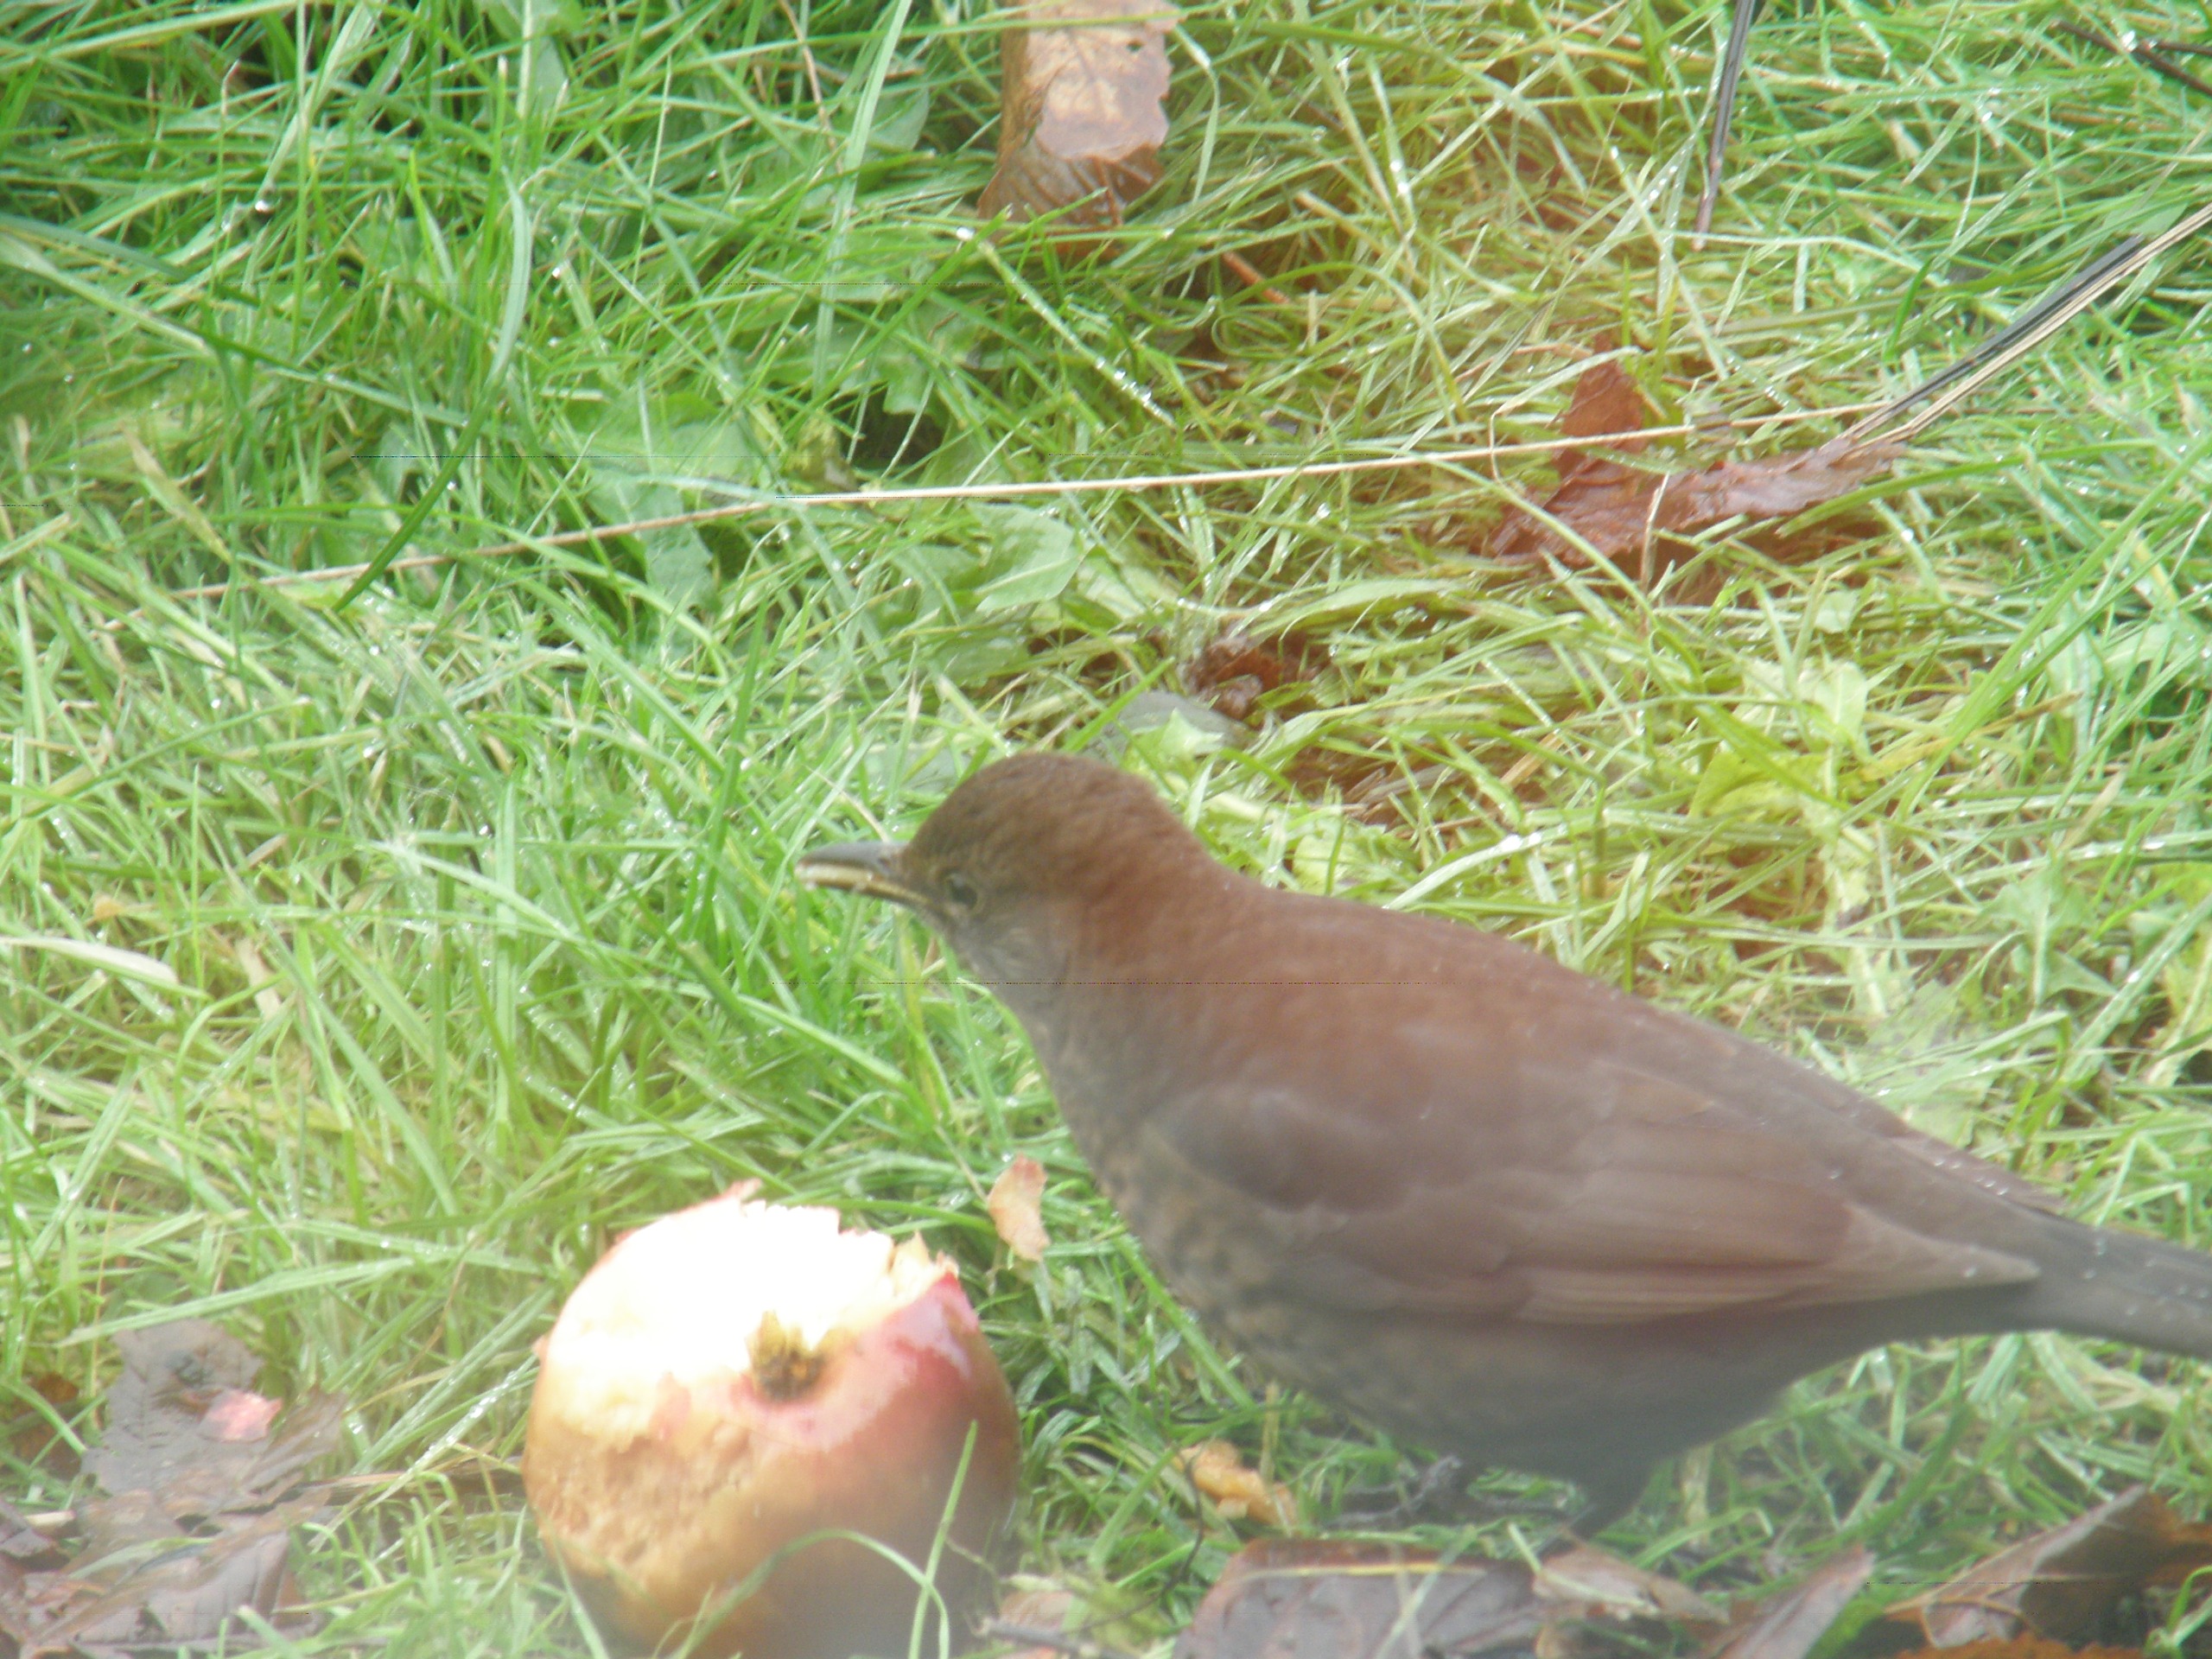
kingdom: Animalia
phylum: Chordata
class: Aves
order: Passeriformes
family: Turdidae
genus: Turdus
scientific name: Turdus merula
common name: Solsort
